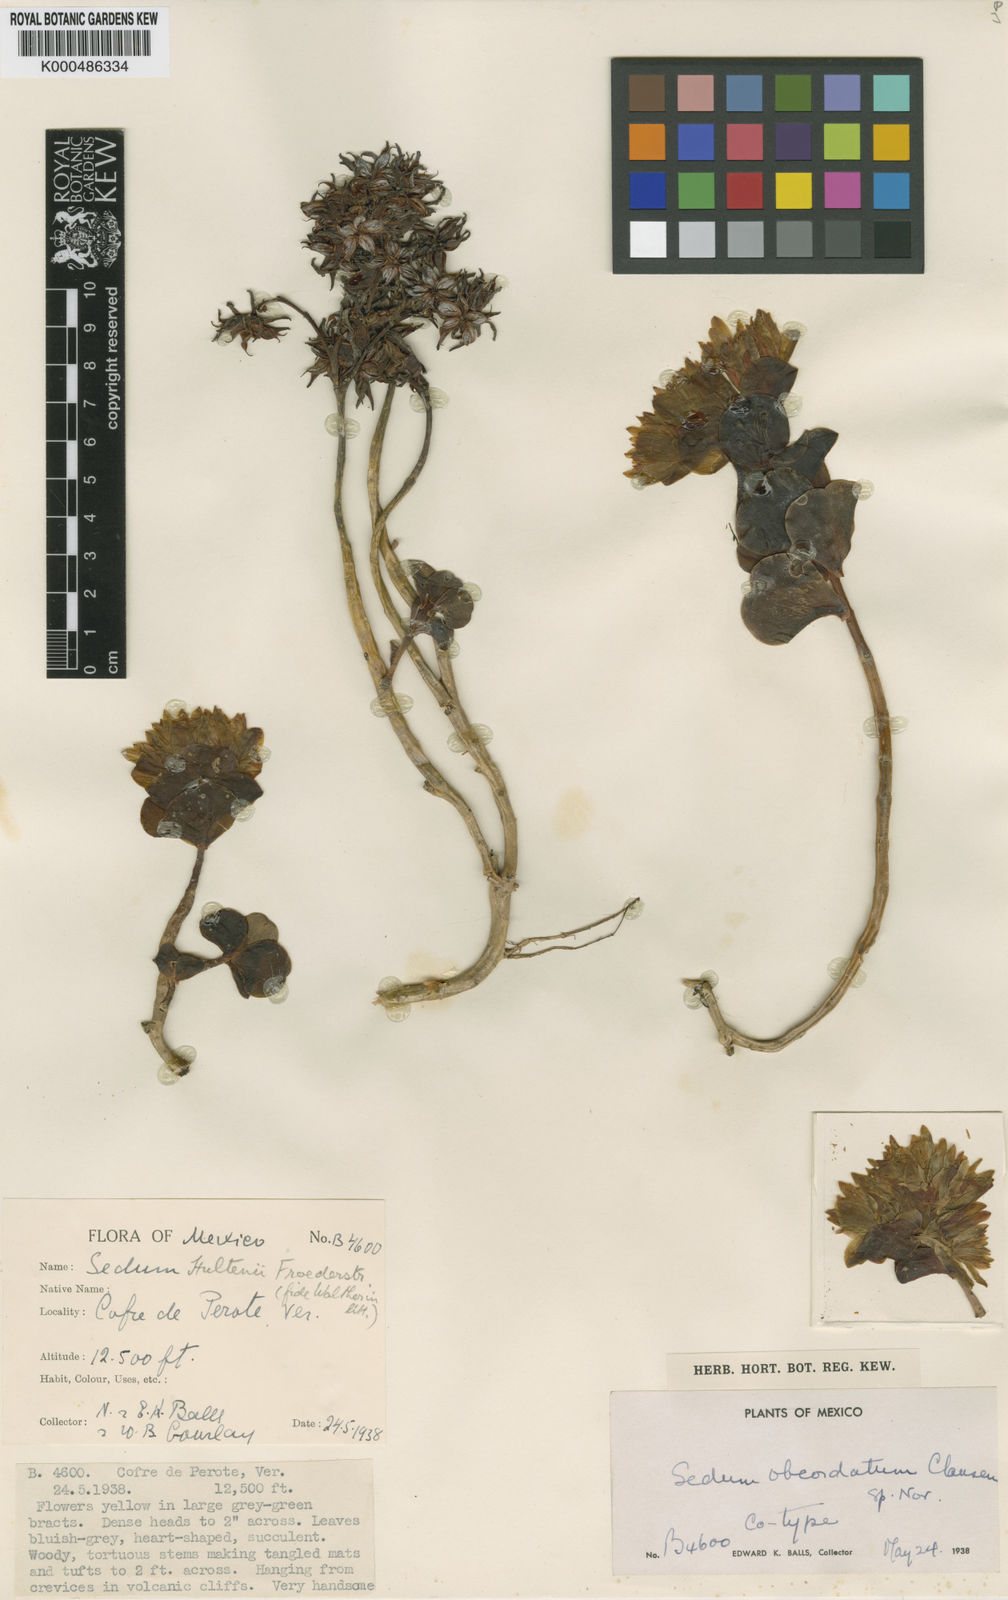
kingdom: Plantae
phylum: Tracheophyta
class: Magnoliopsida
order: Saxifragales
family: Crassulaceae
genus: Sedum
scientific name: Sedum obcordatum
